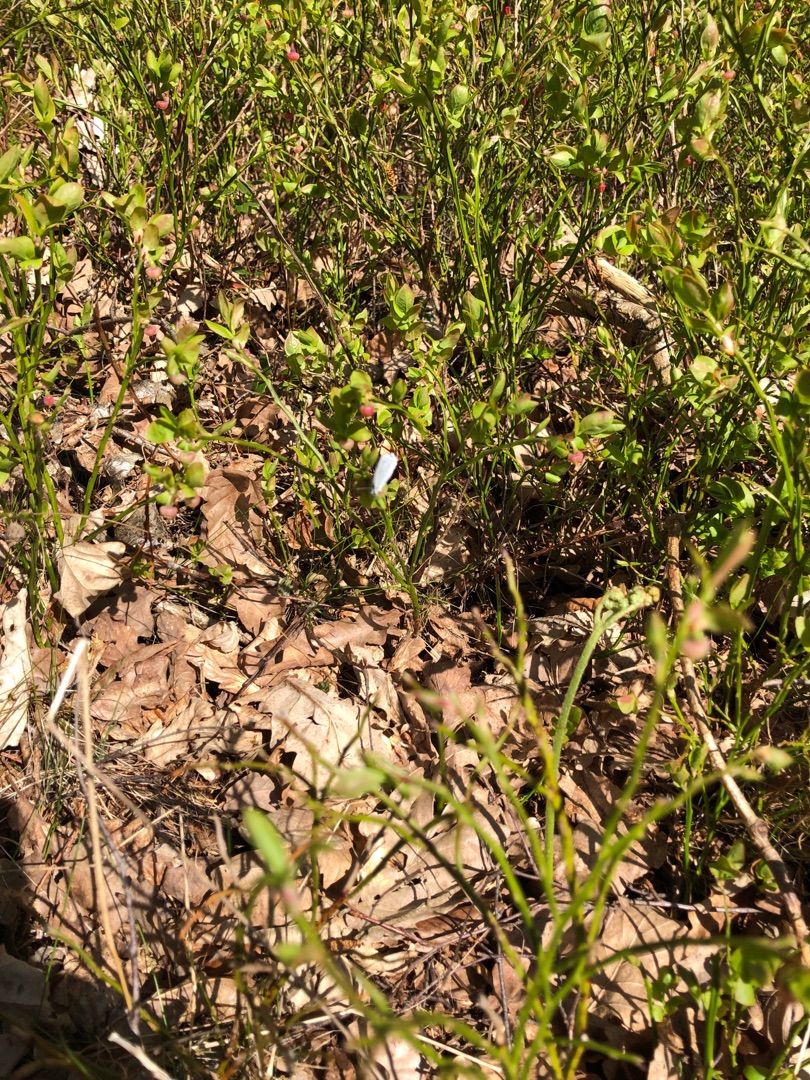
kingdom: Animalia
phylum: Arthropoda
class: Insecta
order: Lepidoptera
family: Lycaenidae
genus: Celastrina
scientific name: Celastrina argiolus
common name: Skovblåfugl
